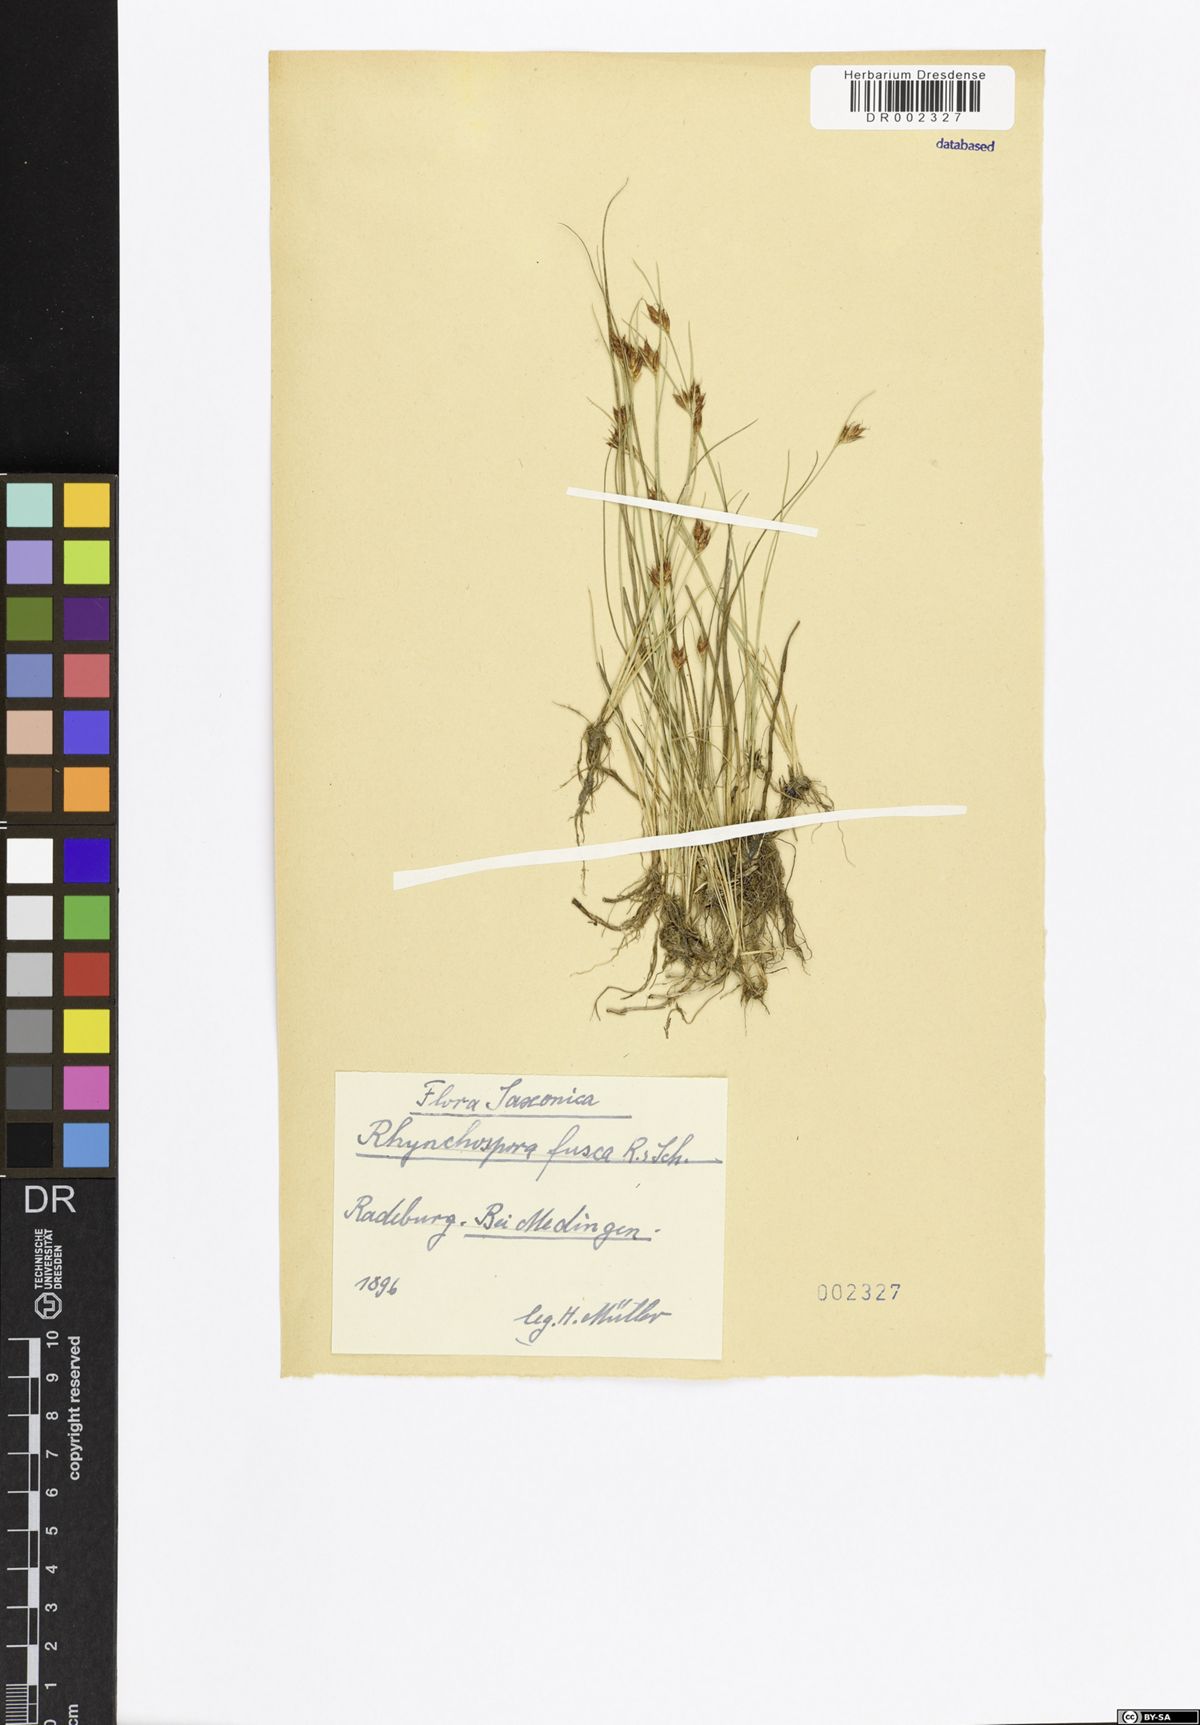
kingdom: Plantae
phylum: Tracheophyta
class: Liliopsida
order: Poales
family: Cyperaceae
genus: Rhynchospora
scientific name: Rhynchospora fusca
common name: Brown beak-sedge
